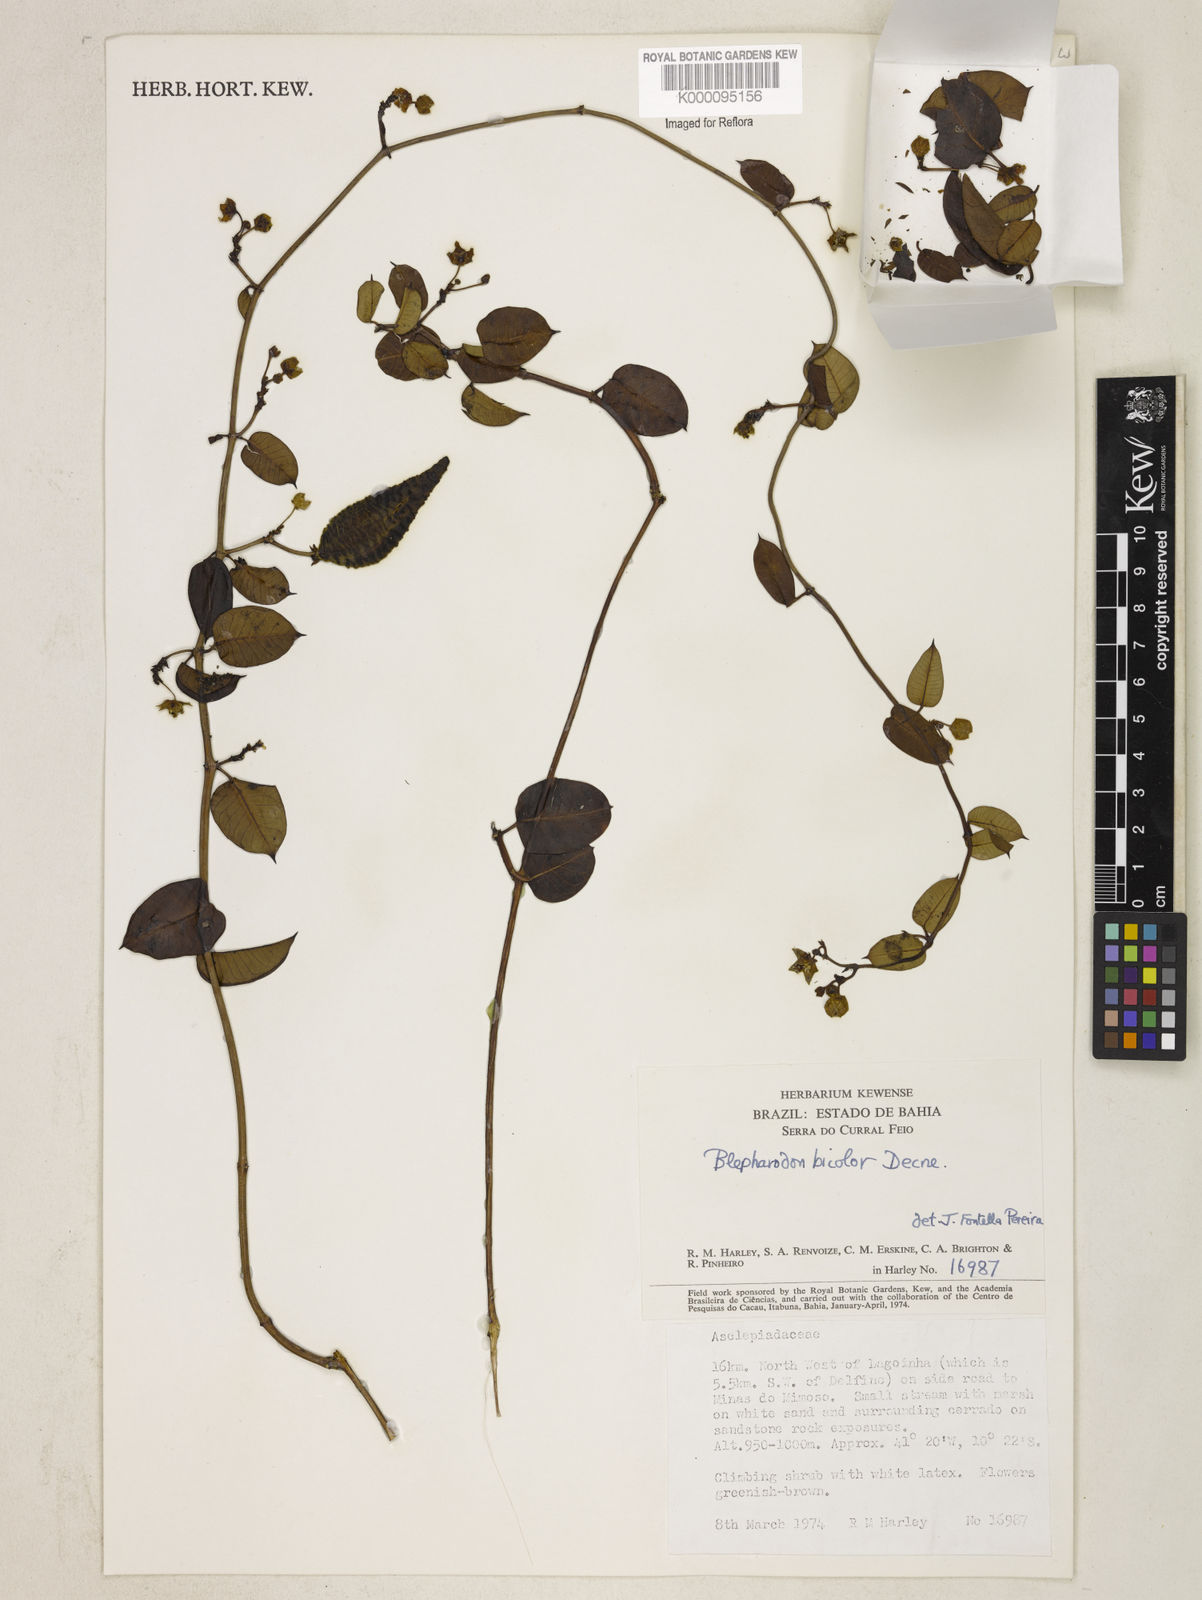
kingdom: Plantae
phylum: Tracheophyta
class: Magnoliopsida
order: Gentianales
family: Apocynaceae
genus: Blepharodon
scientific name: Blepharodon bicolor
